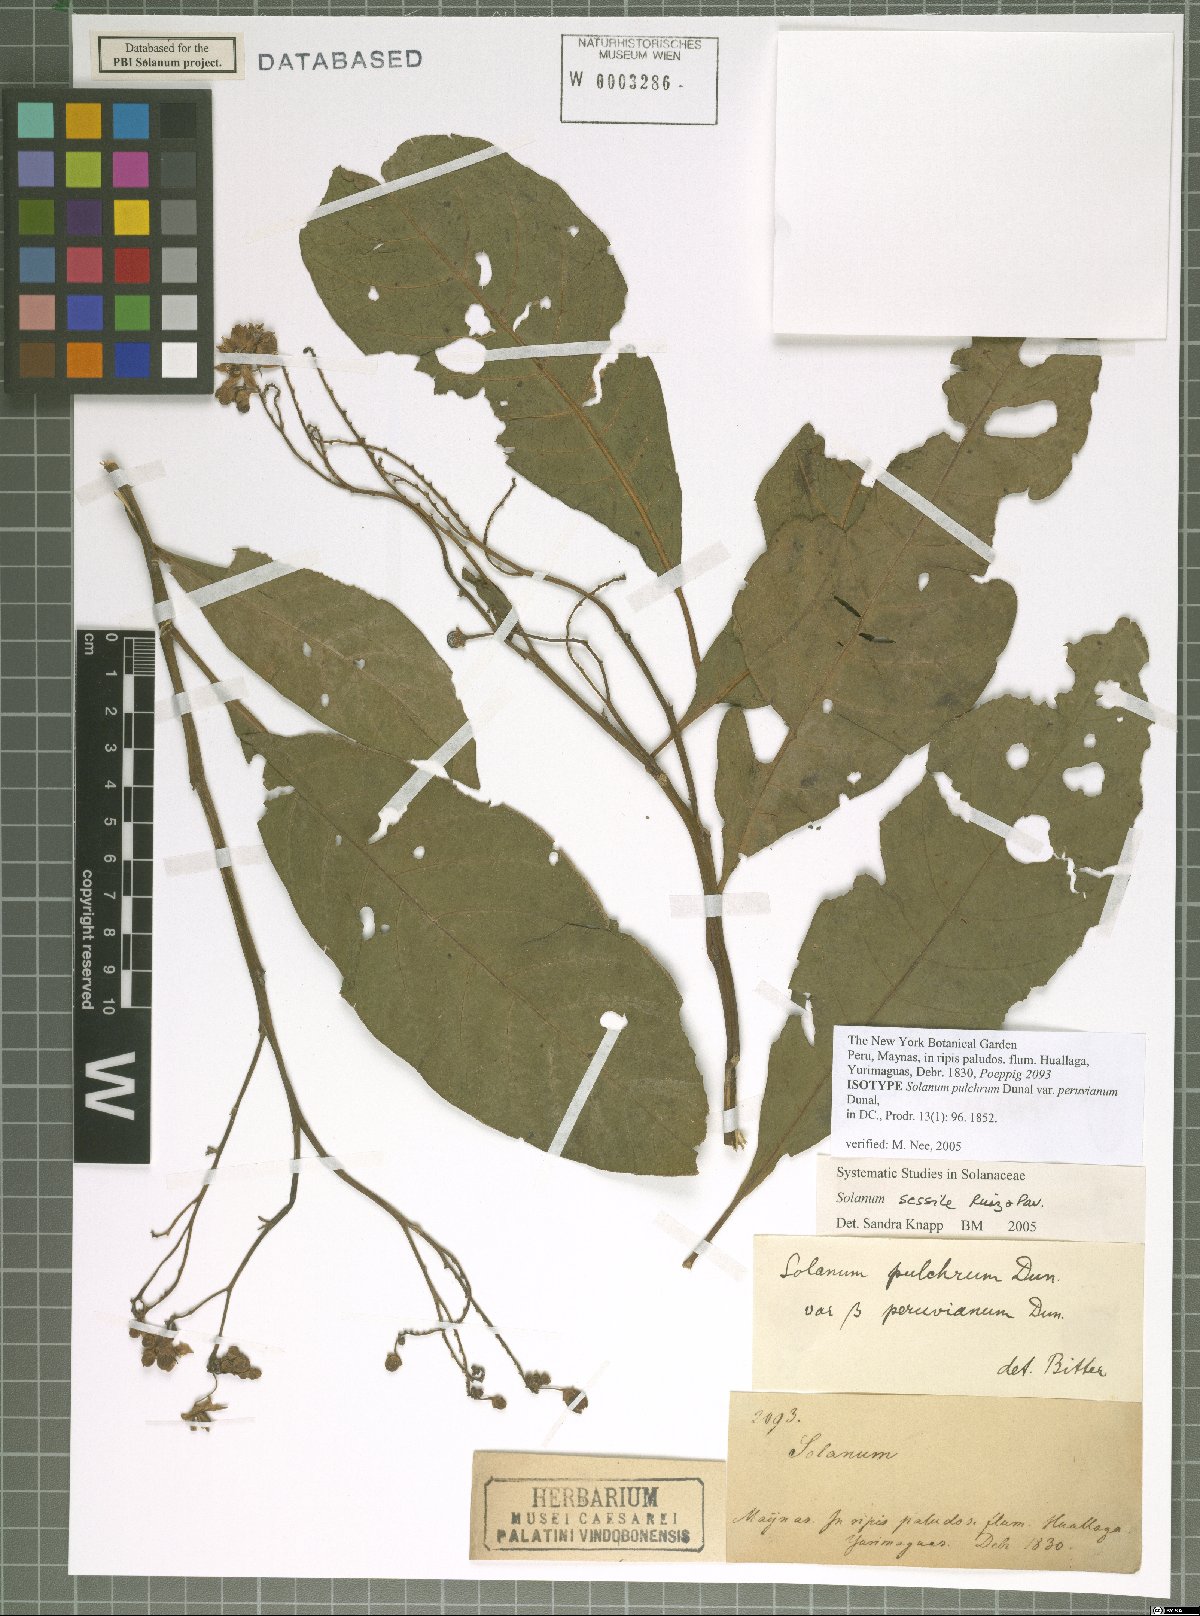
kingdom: Plantae
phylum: Tracheophyta
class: Magnoliopsida
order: Solanales
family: Solanaceae
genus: Solanum
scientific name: Solanum sessile
